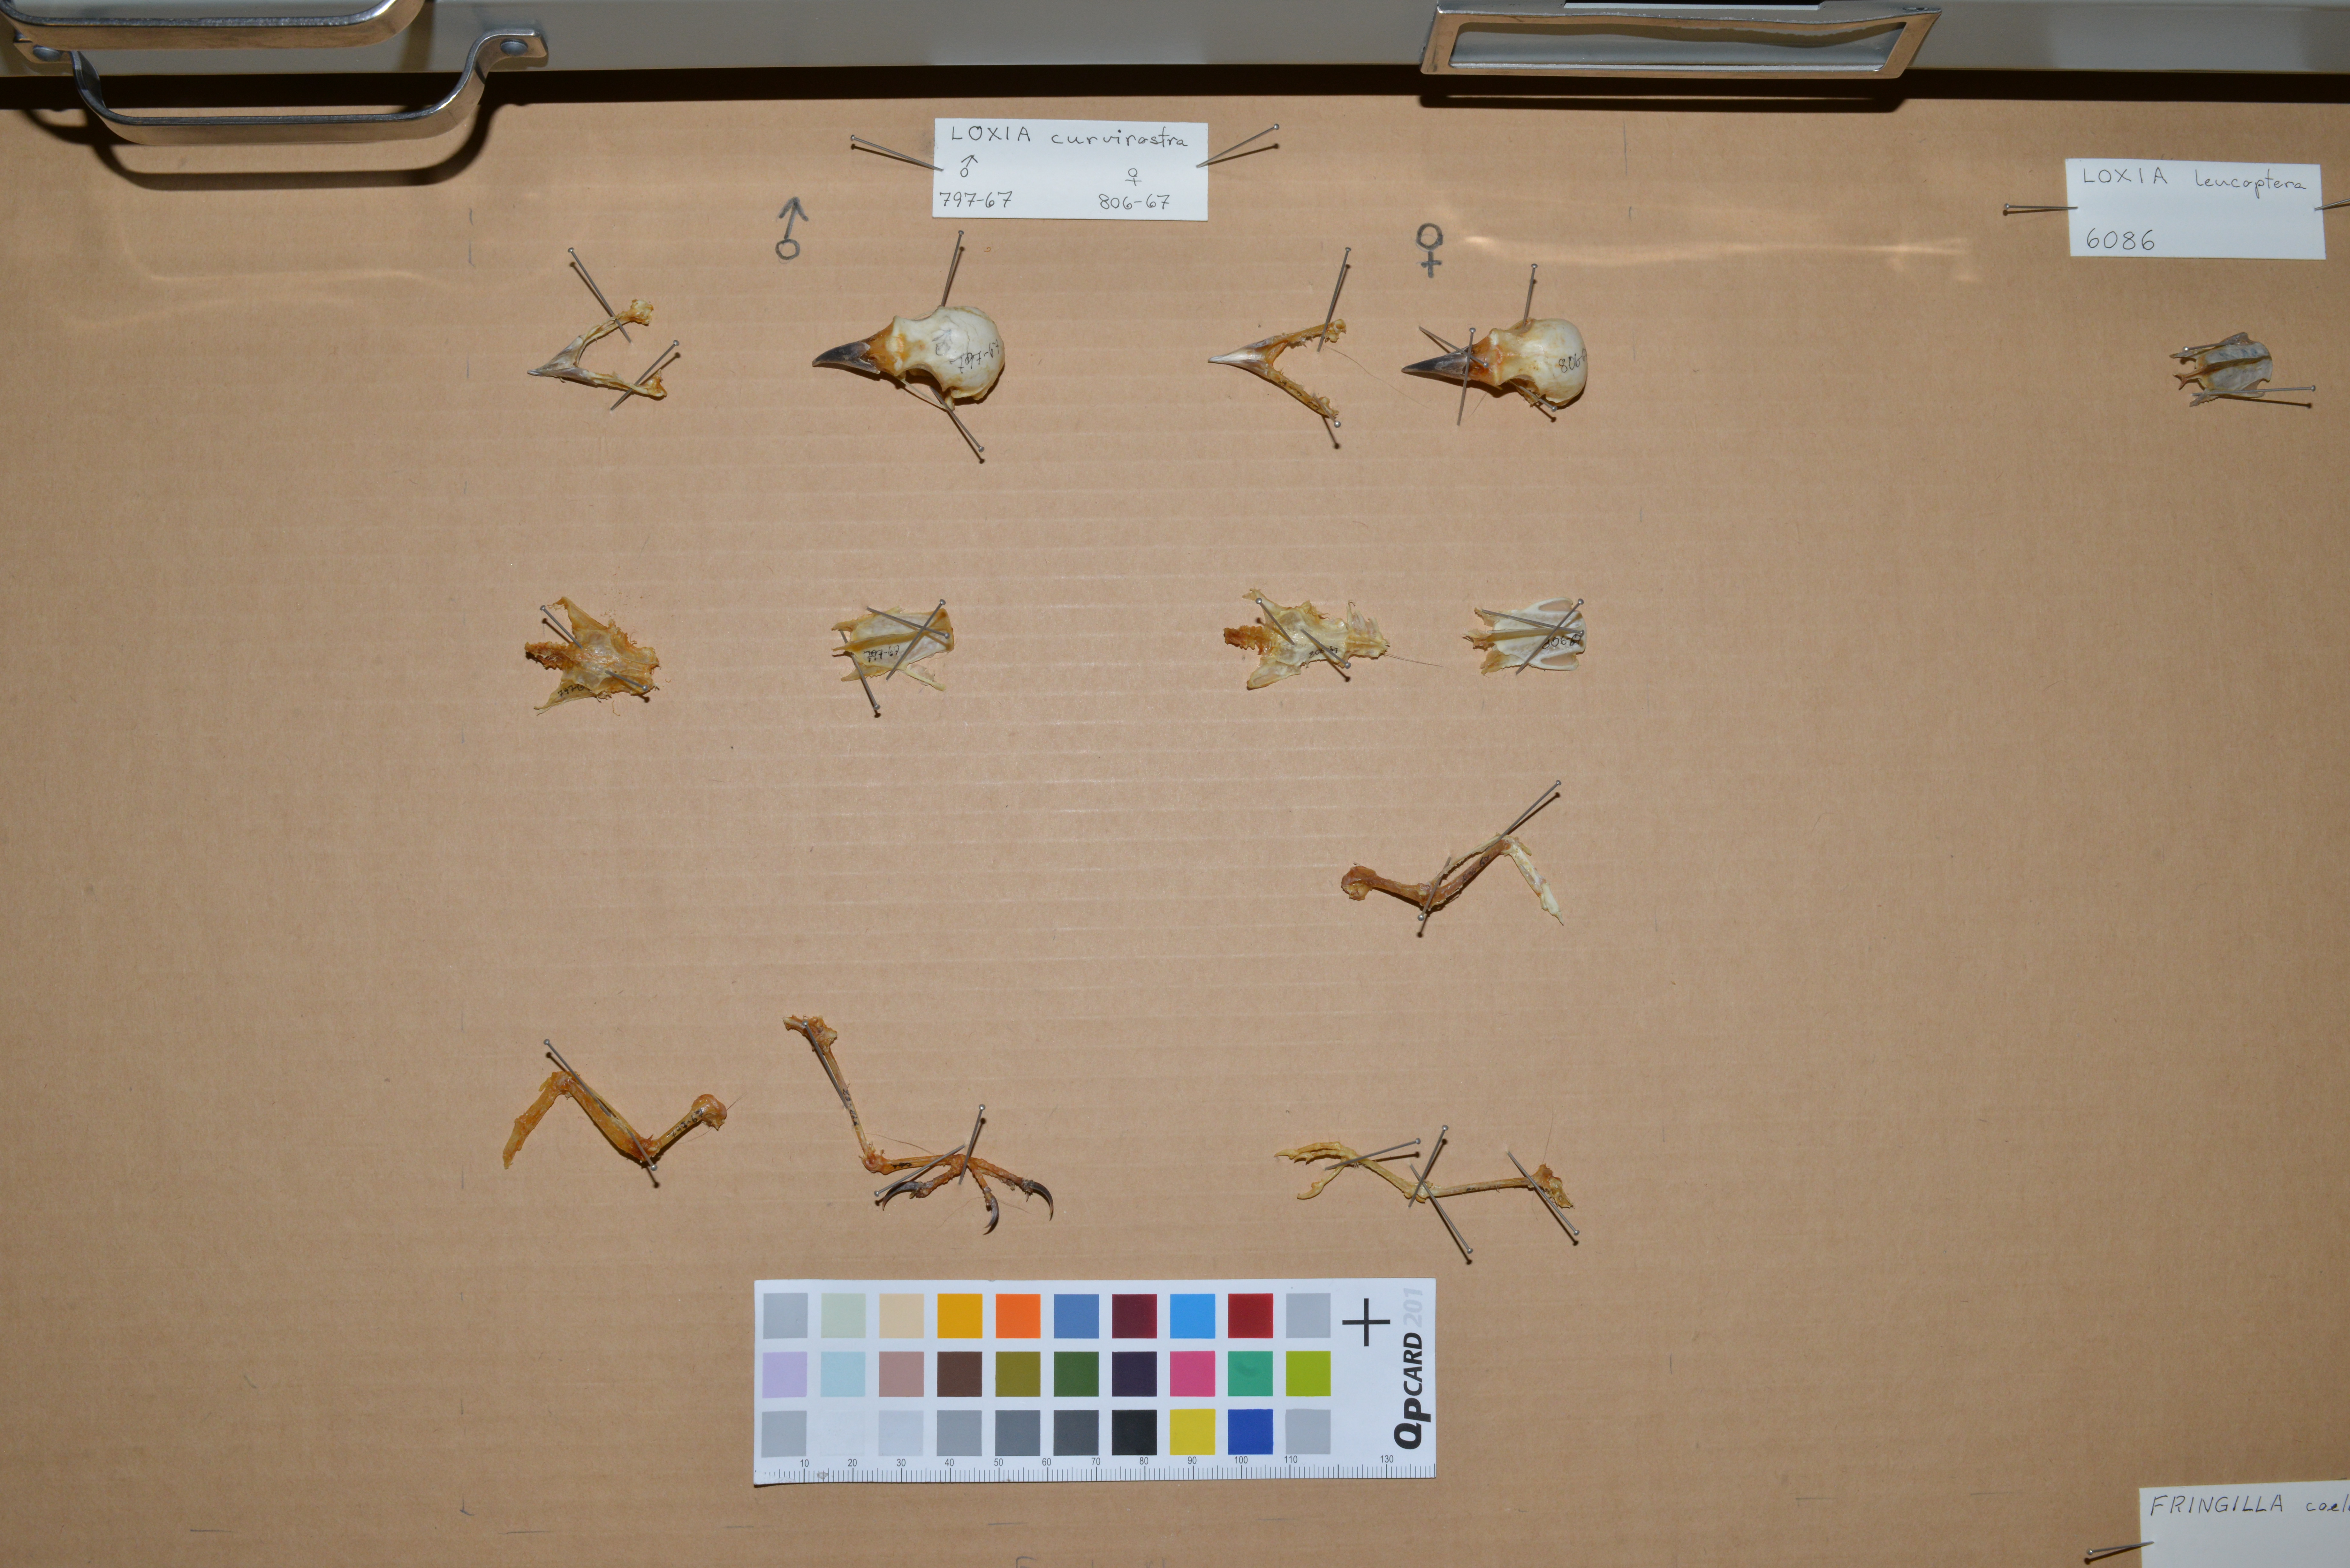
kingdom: Animalia
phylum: Chordata
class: Aves
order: Passeriformes
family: Fringillidae
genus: Loxia
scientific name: Loxia curvirostra
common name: Red crossbill
